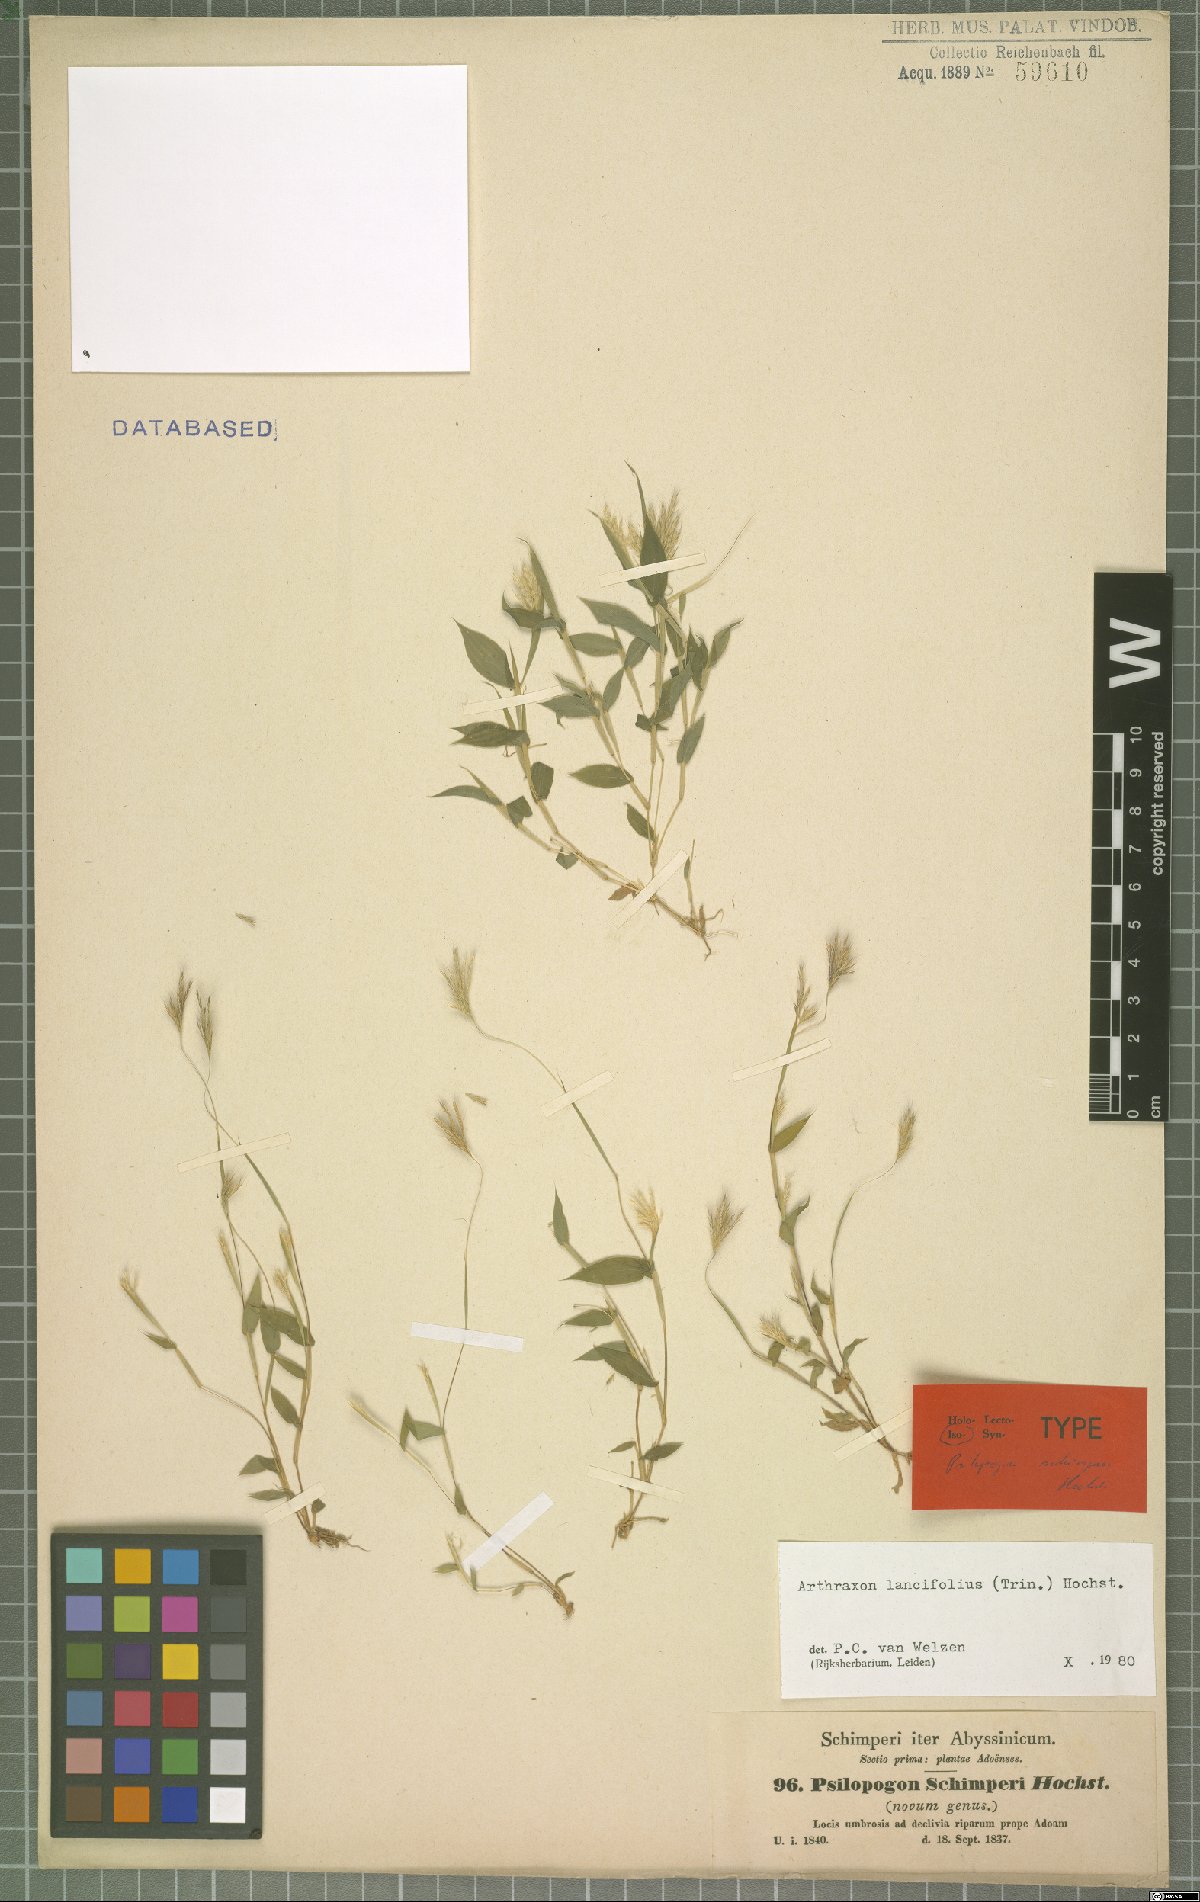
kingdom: Plantae
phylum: Tracheophyta
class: Liliopsida
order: Poales
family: Poaceae
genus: Arthraxon
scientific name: Arthraxon lancifolius
